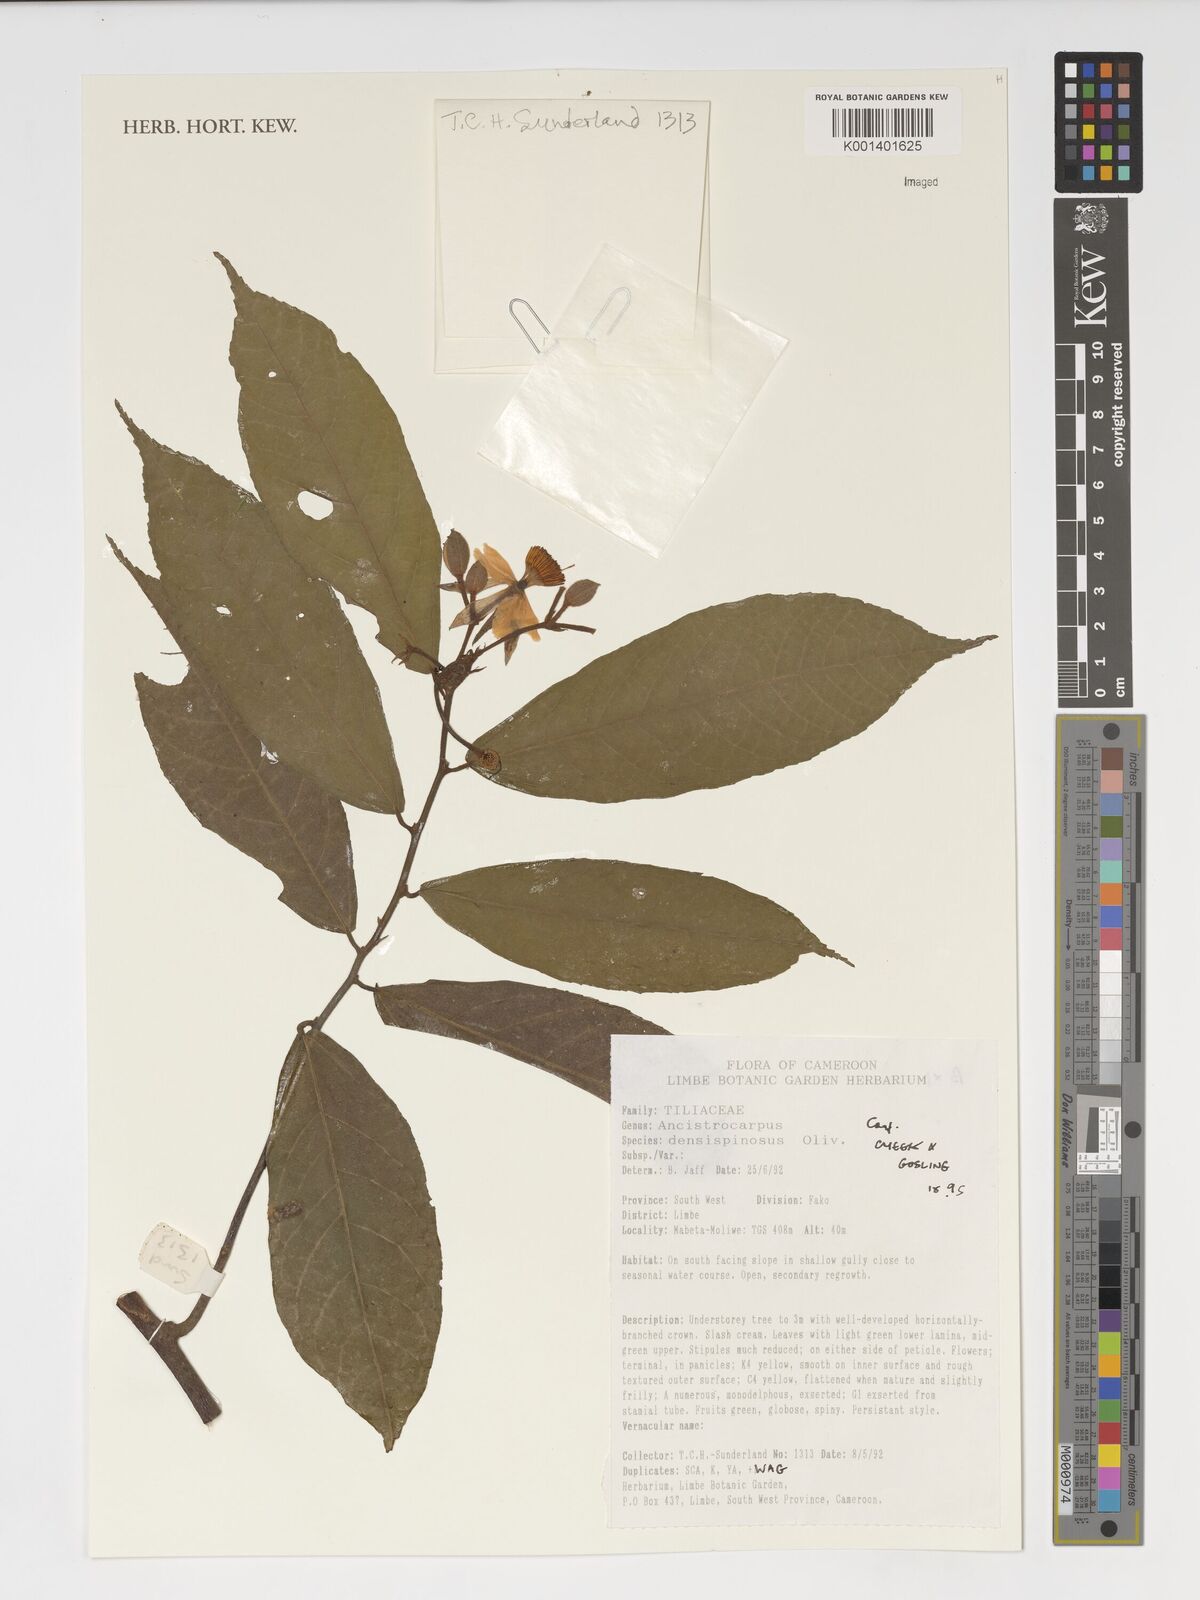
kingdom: Plantae
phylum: Tracheophyta
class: Magnoliopsida
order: Malvales
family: Malvaceae
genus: Ancistrocarpus
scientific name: Ancistrocarpus densispinosus
